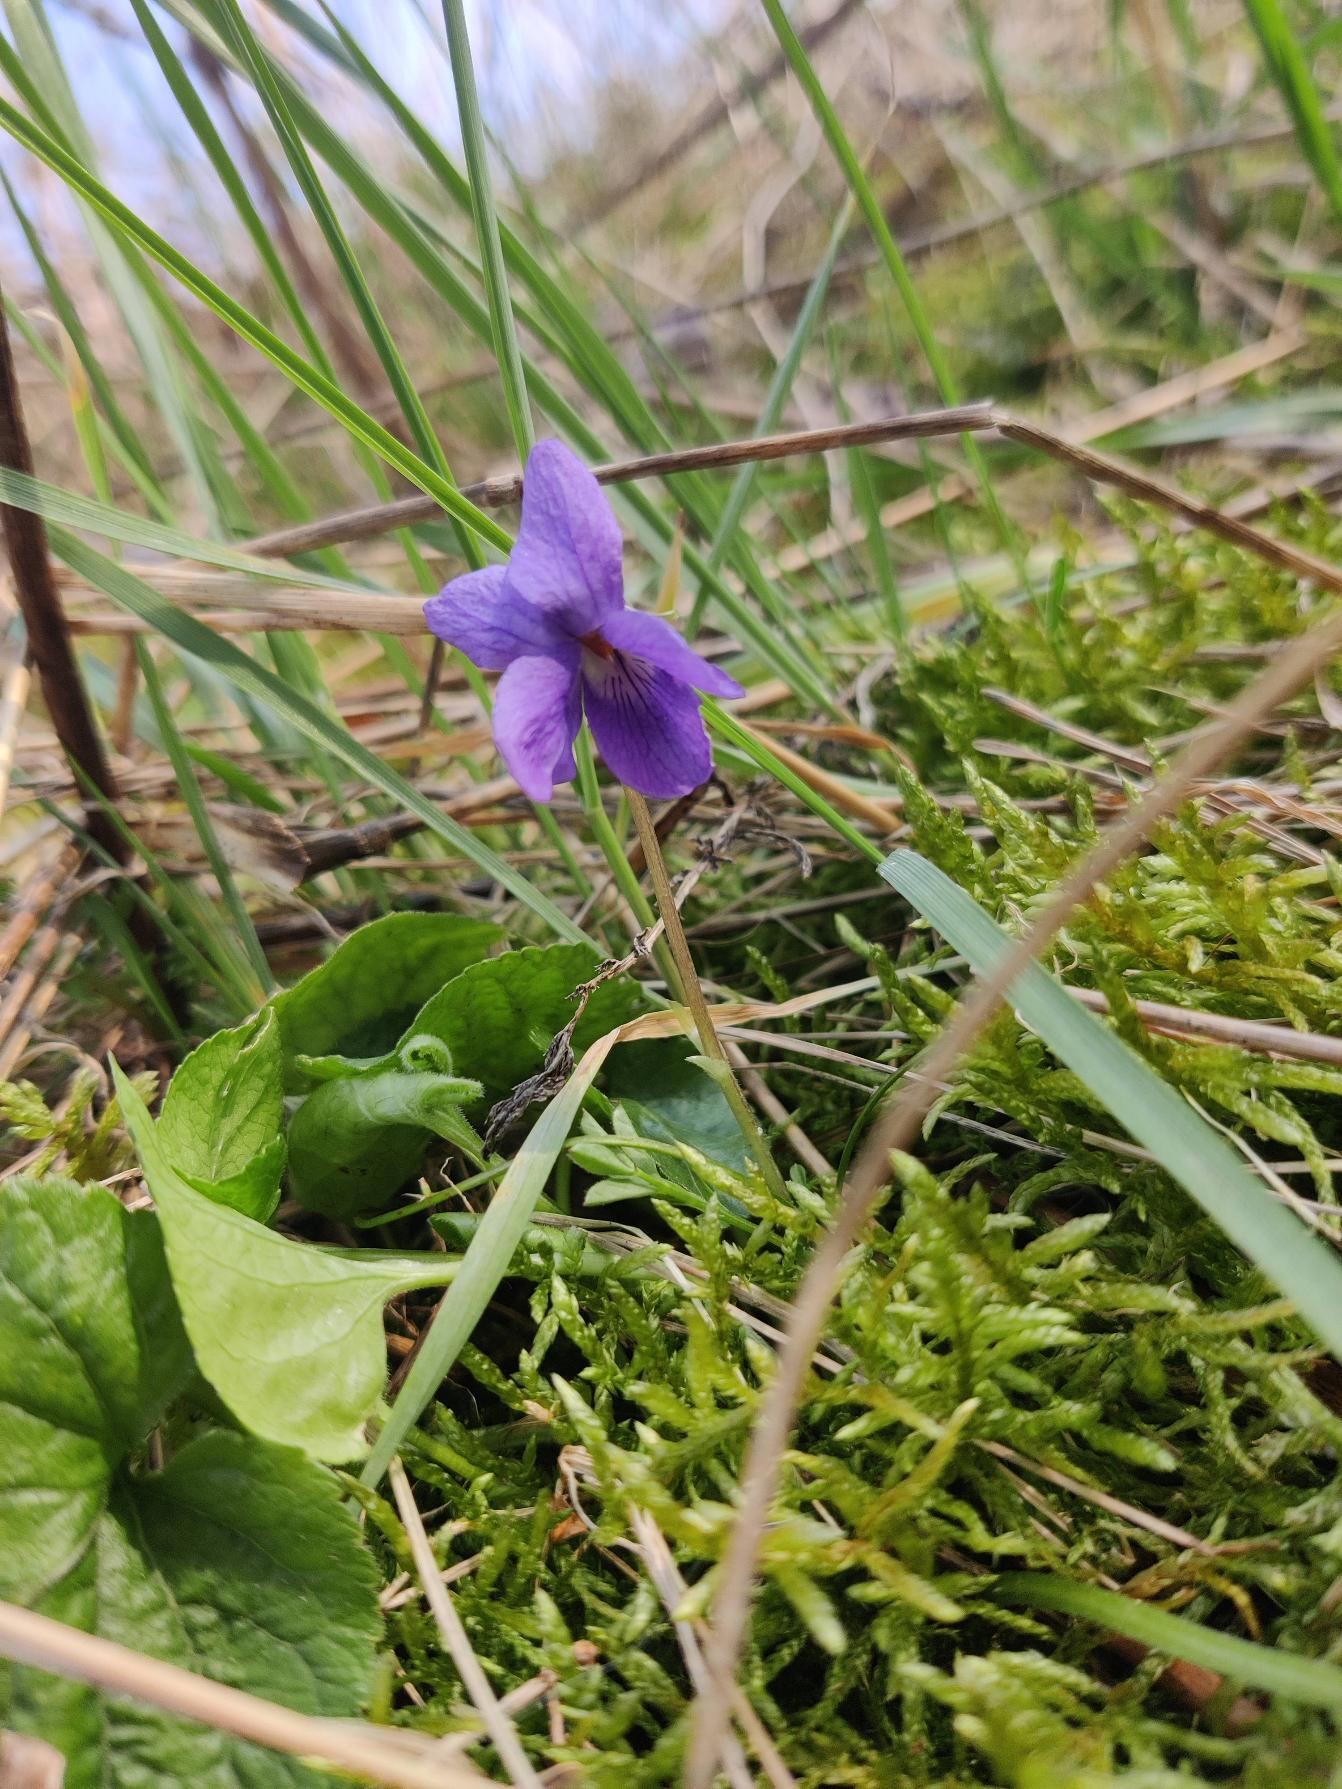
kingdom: Plantae
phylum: Tracheophyta
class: Magnoliopsida
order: Malpighiales
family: Violaceae
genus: Viola
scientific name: Viola odorata
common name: Marts-viol
